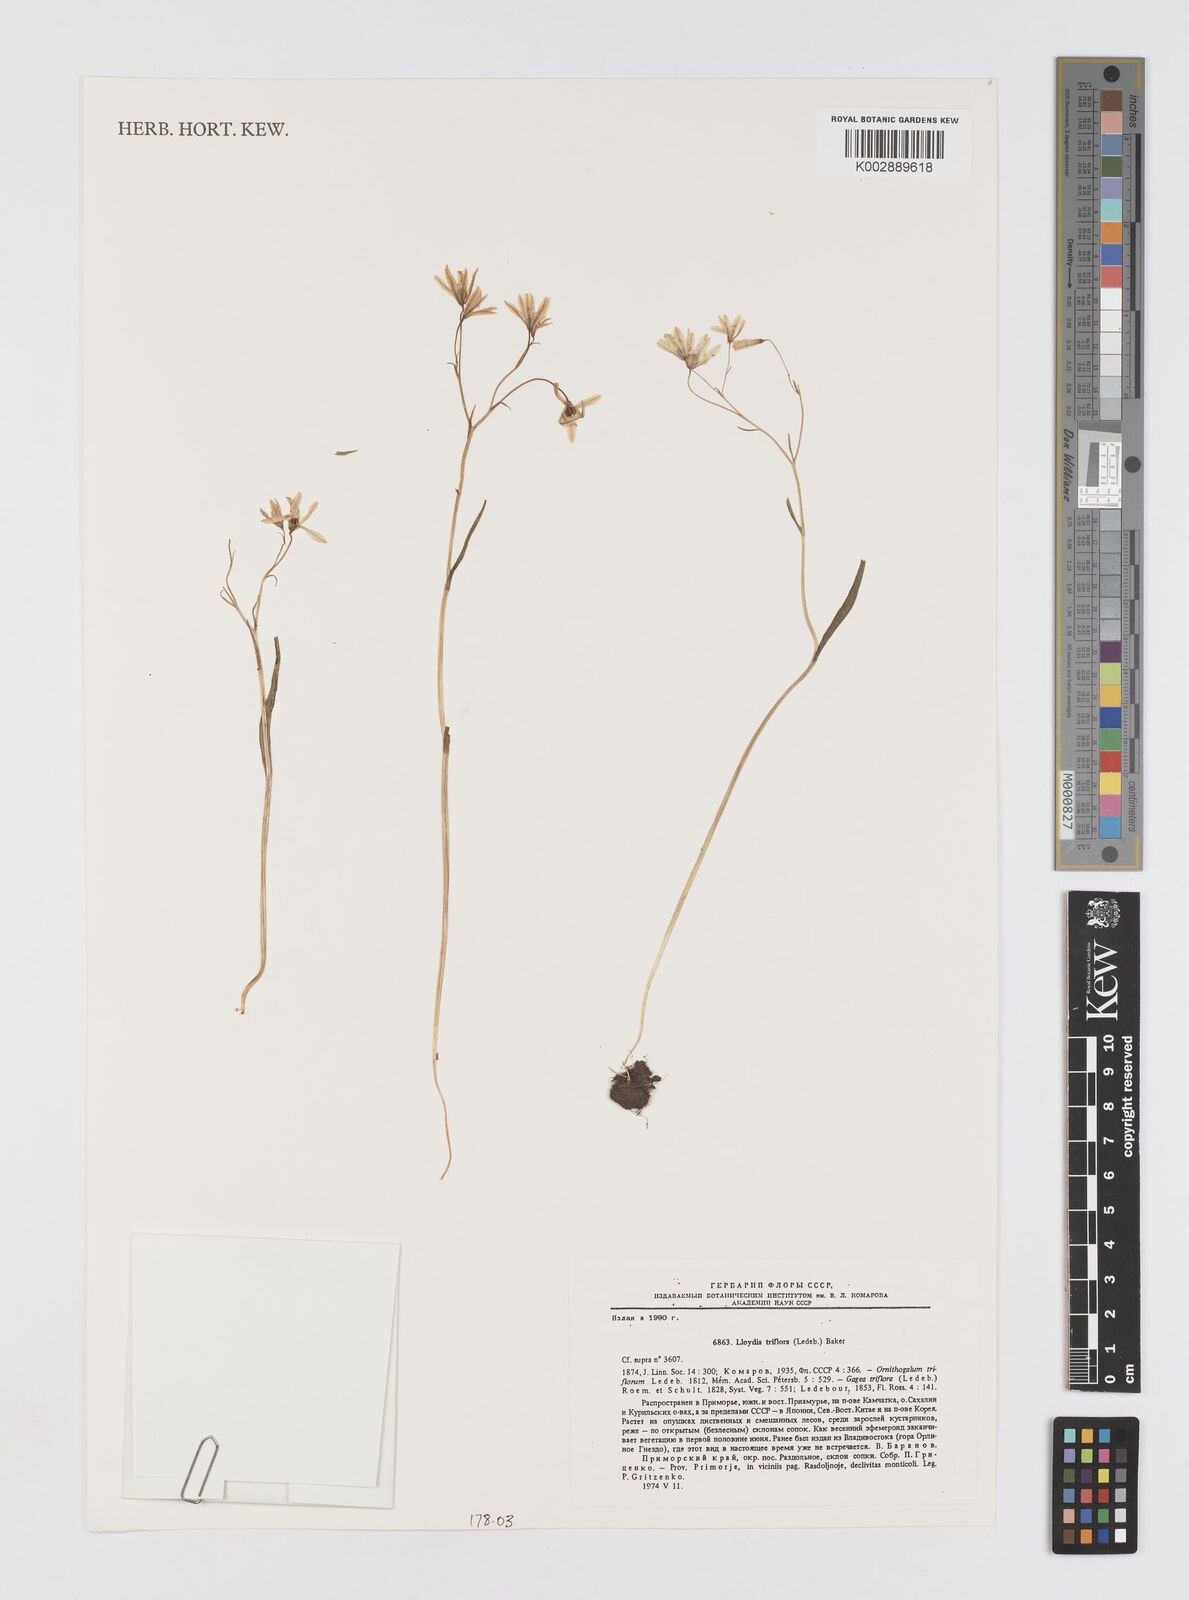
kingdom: Plantae
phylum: Tracheophyta
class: Liliopsida
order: Liliales
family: Liliaceae
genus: Gagea
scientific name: Gagea triflora
